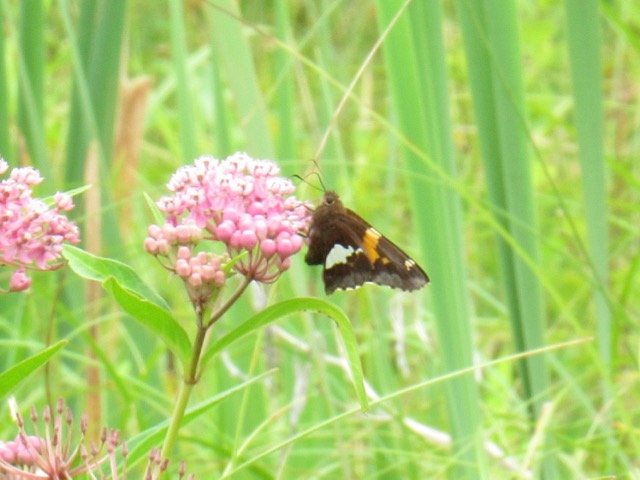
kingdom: Animalia
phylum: Arthropoda
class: Insecta
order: Lepidoptera
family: Hesperiidae
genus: Epargyreus
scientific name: Epargyreus clarus
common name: Silver-spotted Skipper
